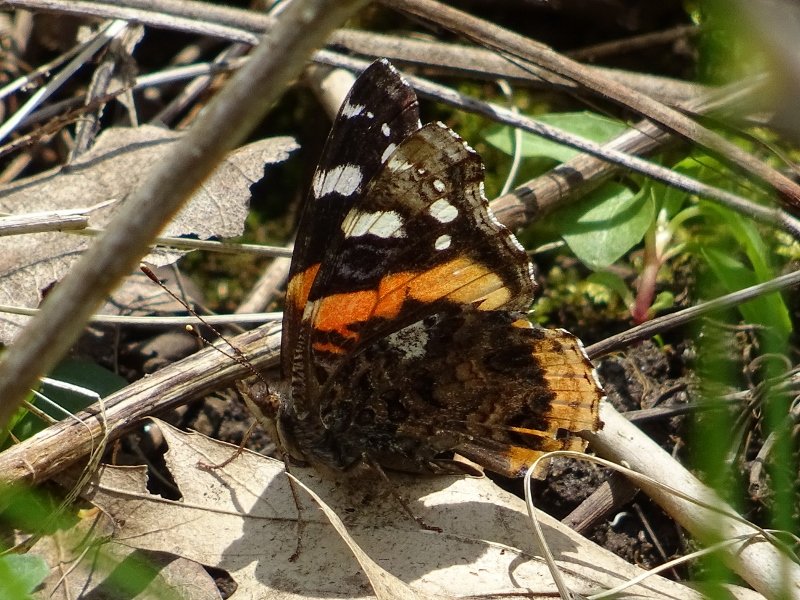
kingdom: Animalia
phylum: Arthropoda
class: Insecta
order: Lepidoptera
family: Nymphalidae
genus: Vanessa
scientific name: Vanessa atalanta
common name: Red Admiral
